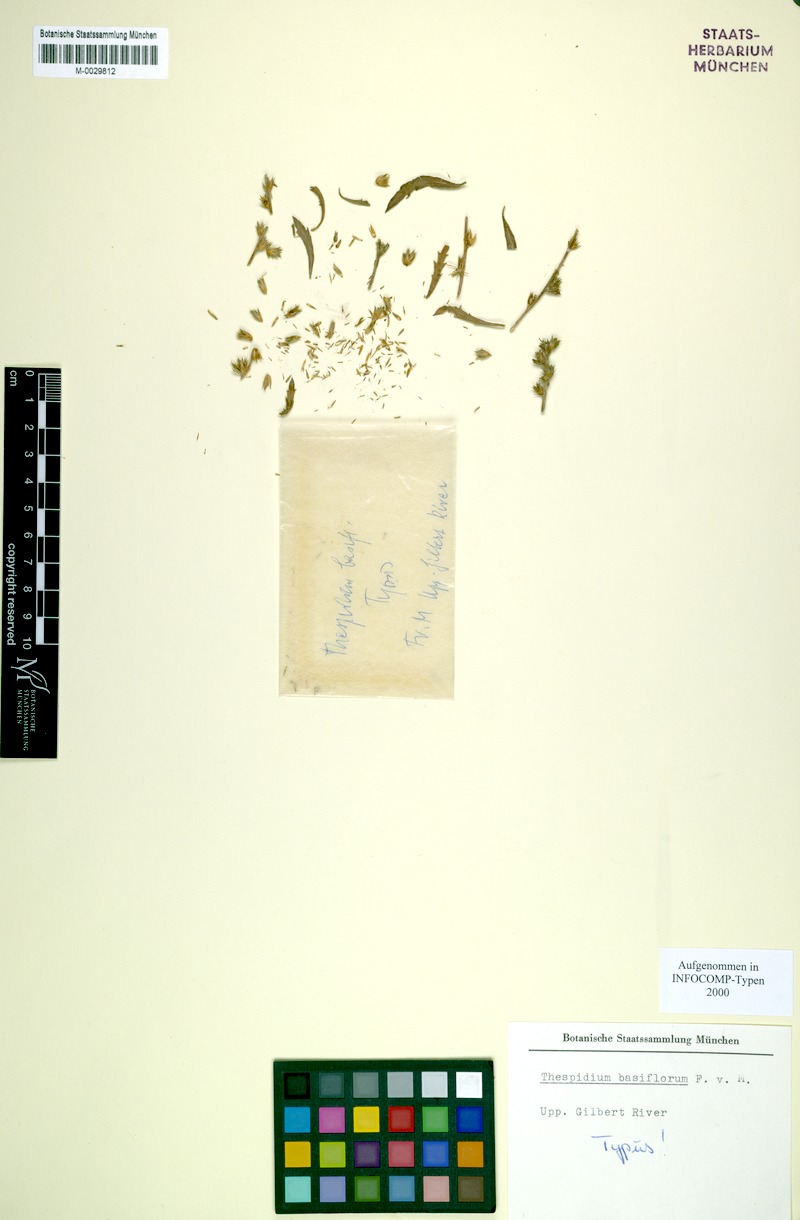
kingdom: Plantae
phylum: Tracheophyta
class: Magnoliopsida
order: Asterales
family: Asteraceae
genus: Thespidium
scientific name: Thespidium basiflorum
